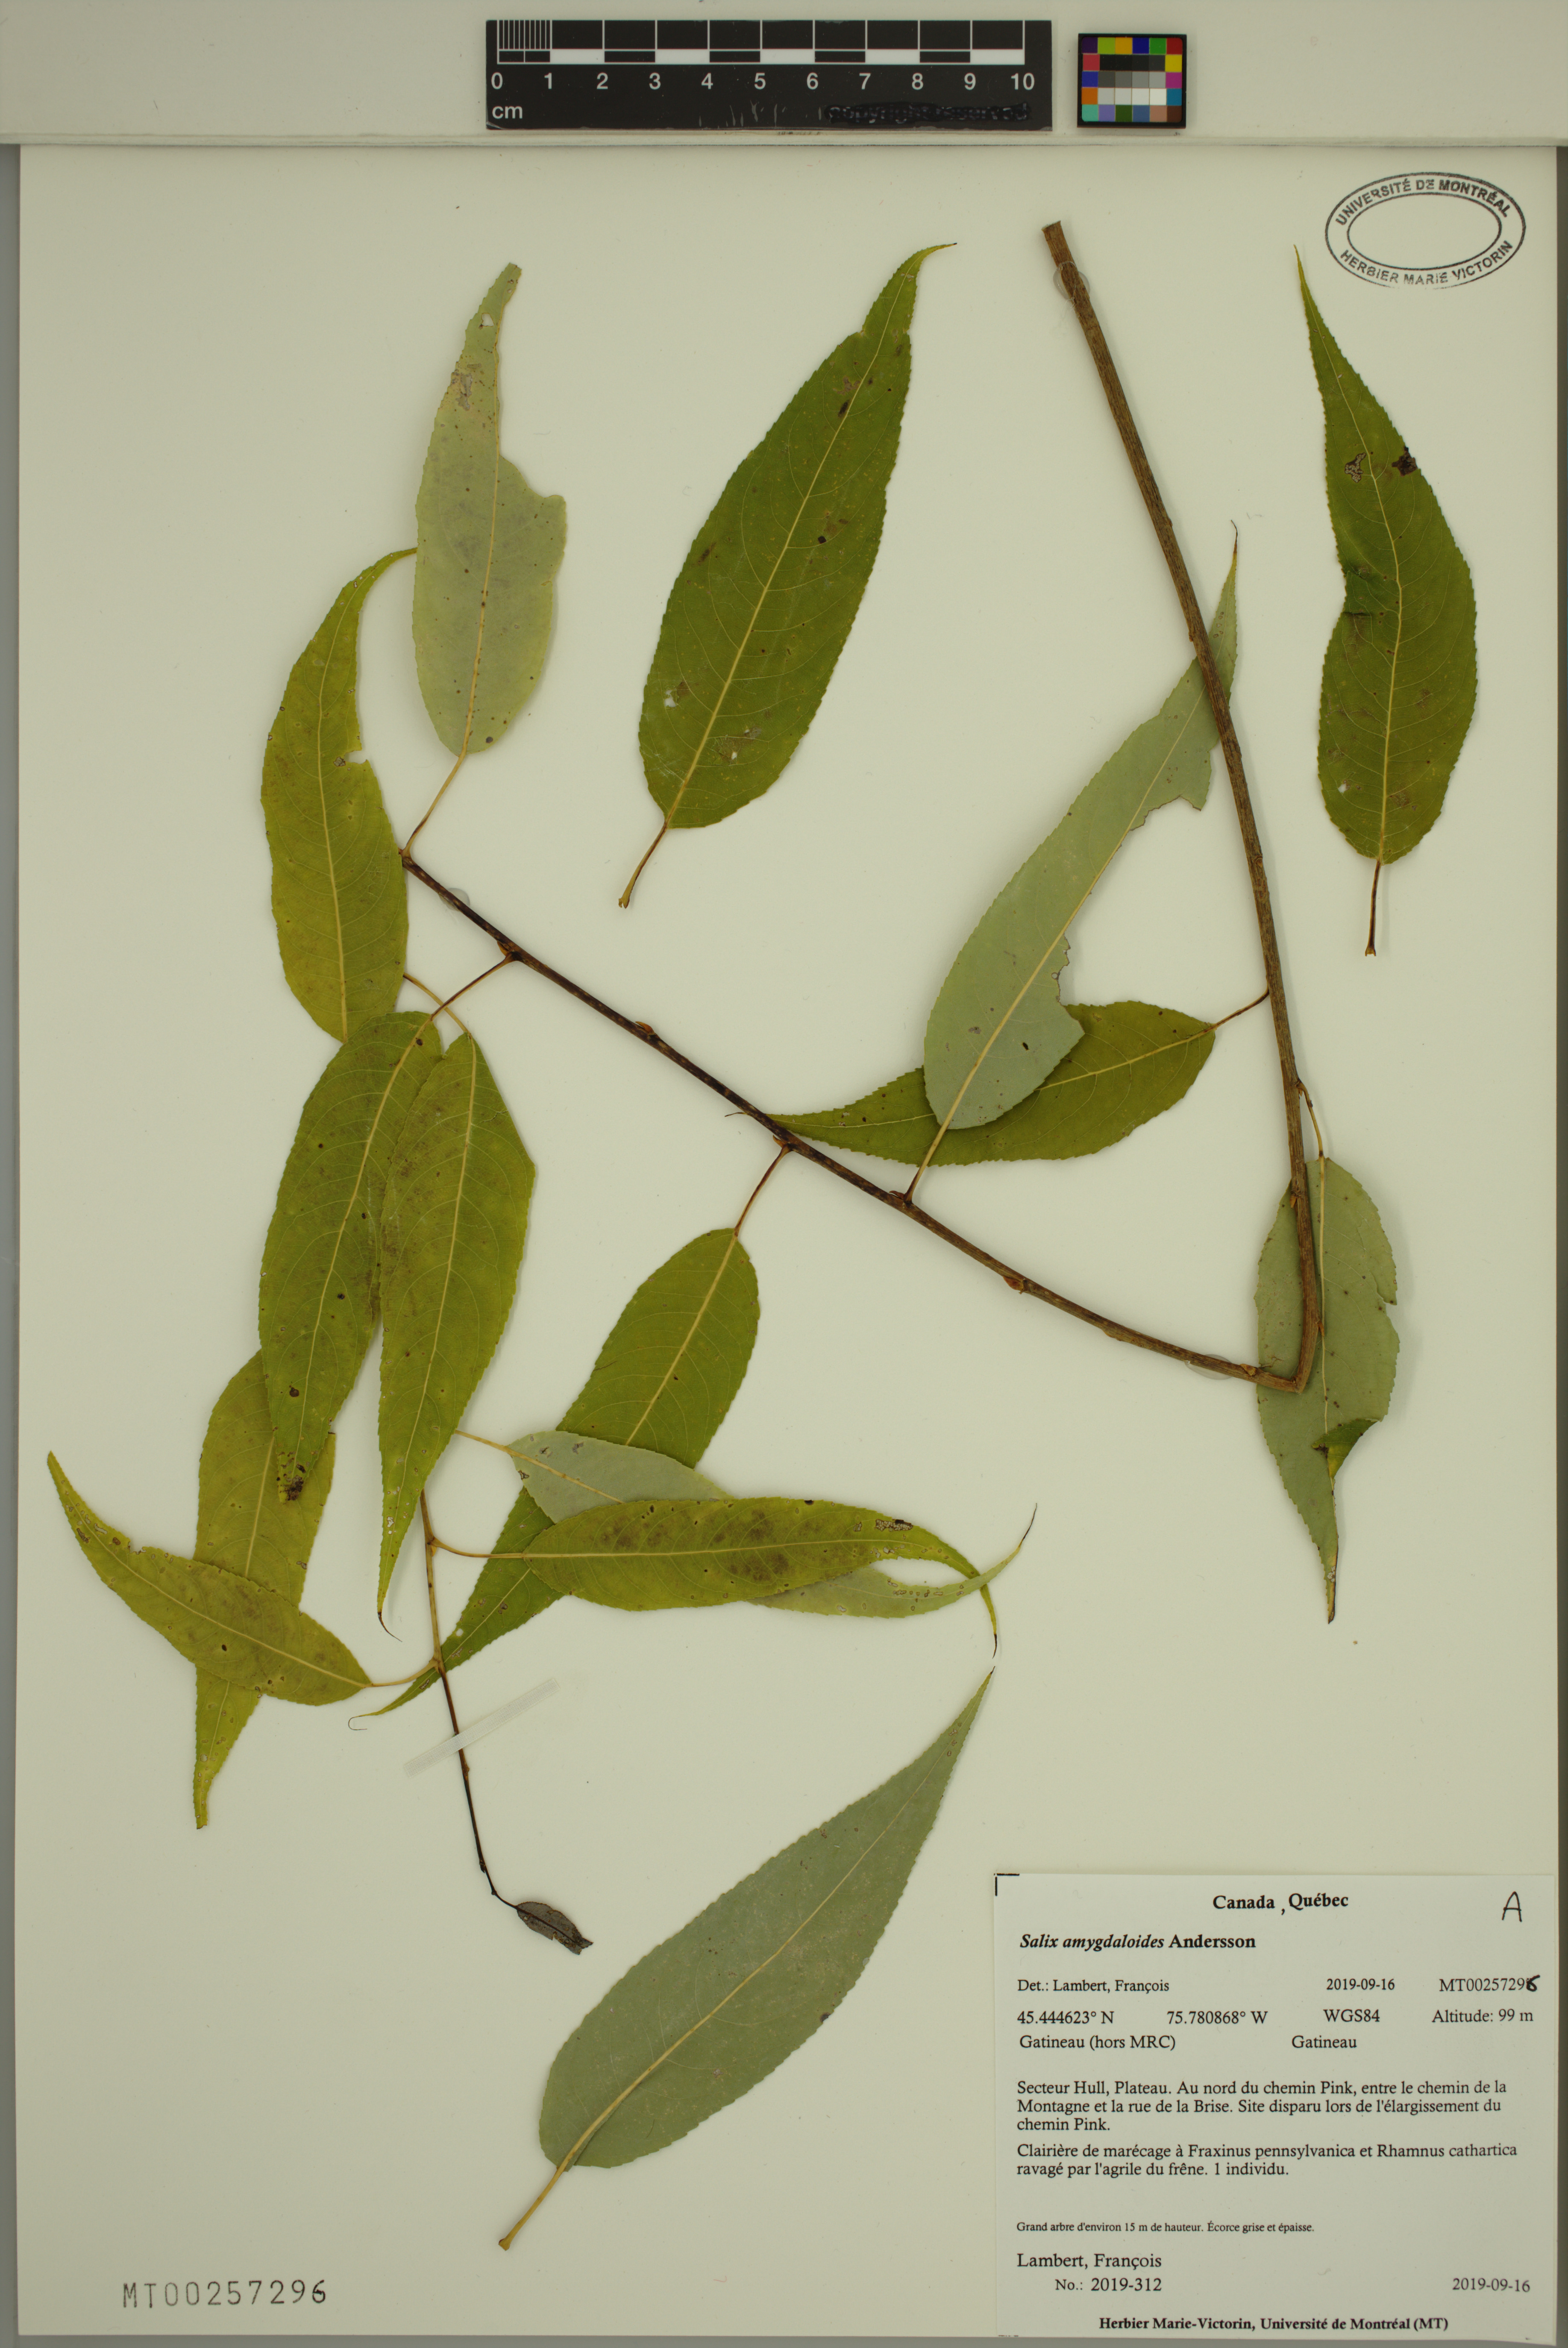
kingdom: Plantae
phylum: Tracheophyta
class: Magnoliopsida
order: Malpighiales
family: Salicaceae
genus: Salix
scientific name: Salix amygdaloides
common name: Peach leaf willow
